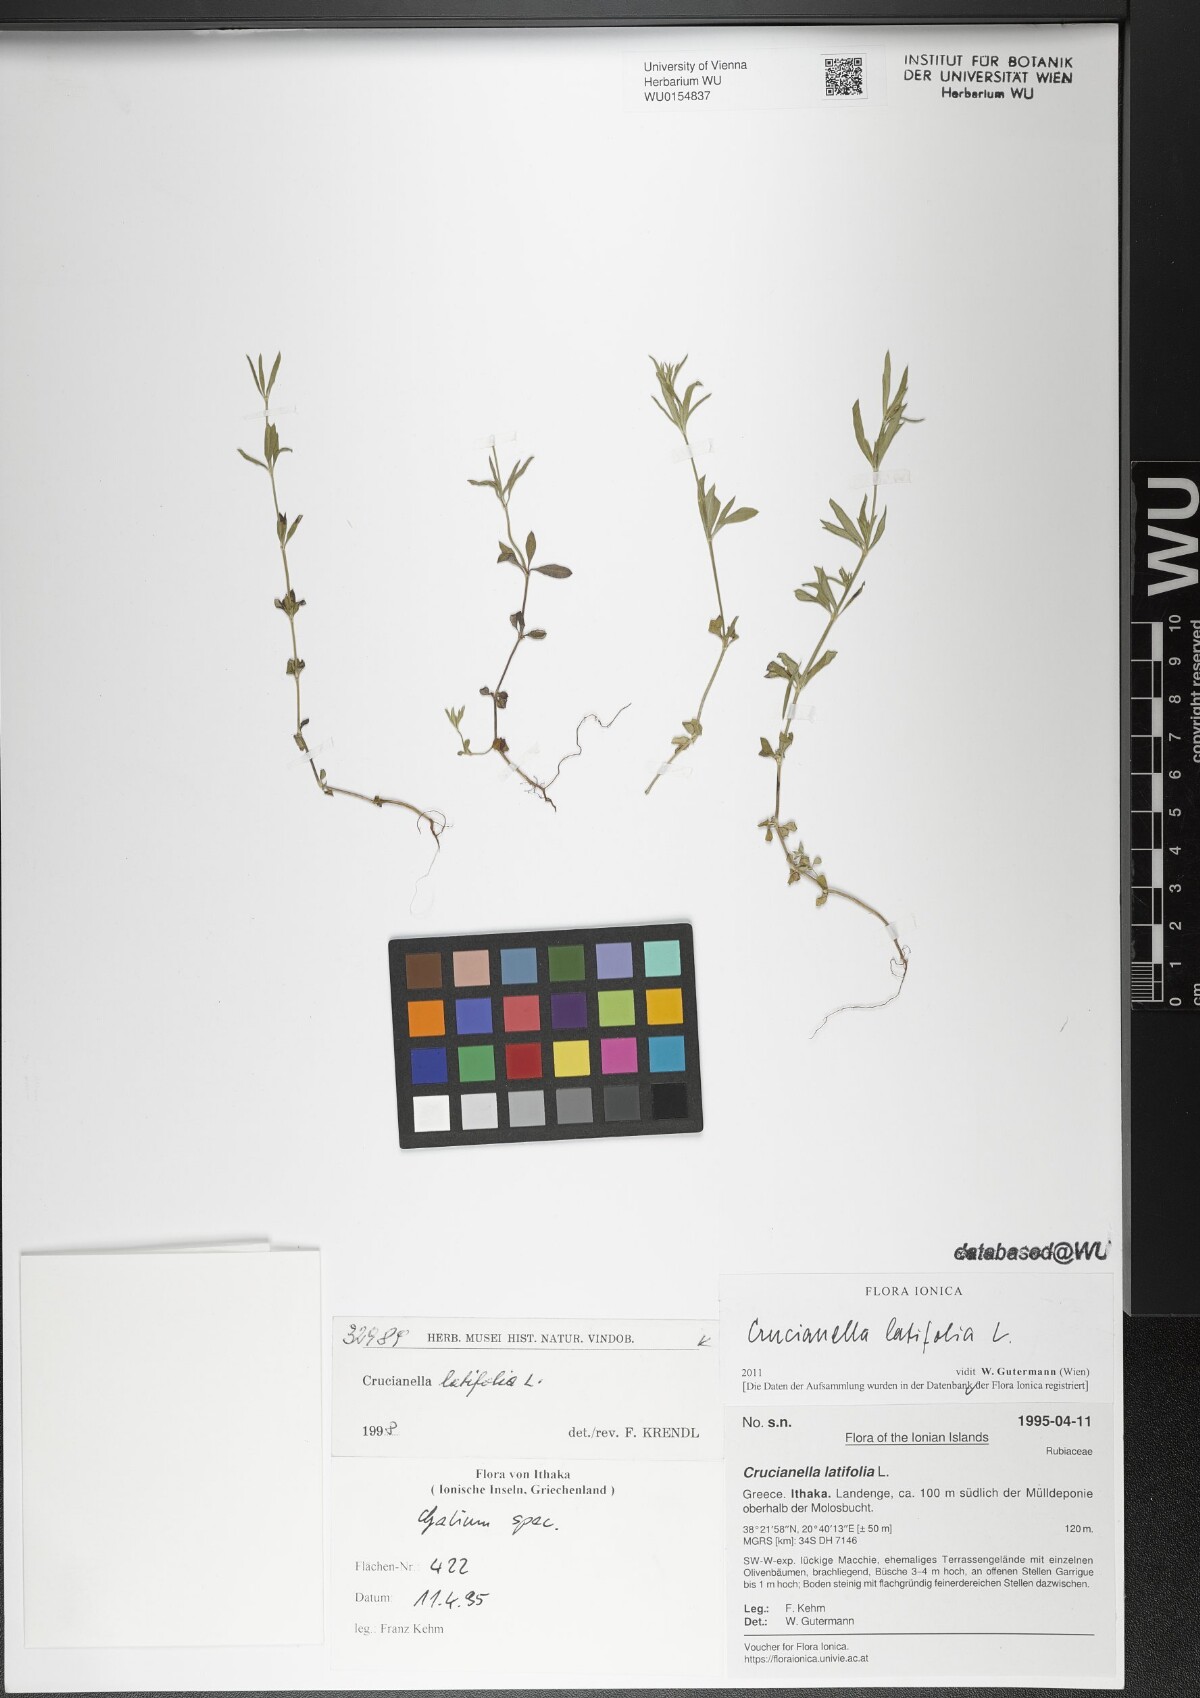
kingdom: Plantae
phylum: Tracheophyta
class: Magnoliopsida
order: Gentianales
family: Rubiaceae
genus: Crucianella
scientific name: Crucianella latifolia
